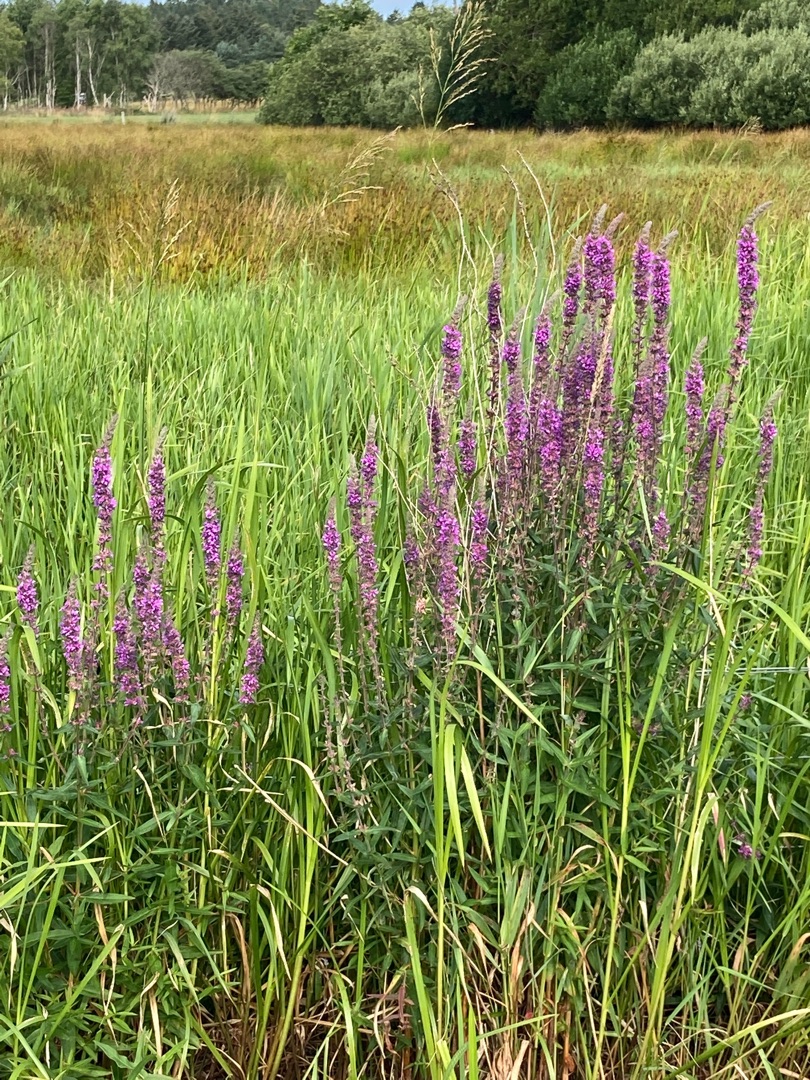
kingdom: Plantae
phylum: Tracheophyta
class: Magnoliopsida
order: Myrtales
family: Lythraceae
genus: Lythrum
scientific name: Lythrum salicaria
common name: Kattehale
